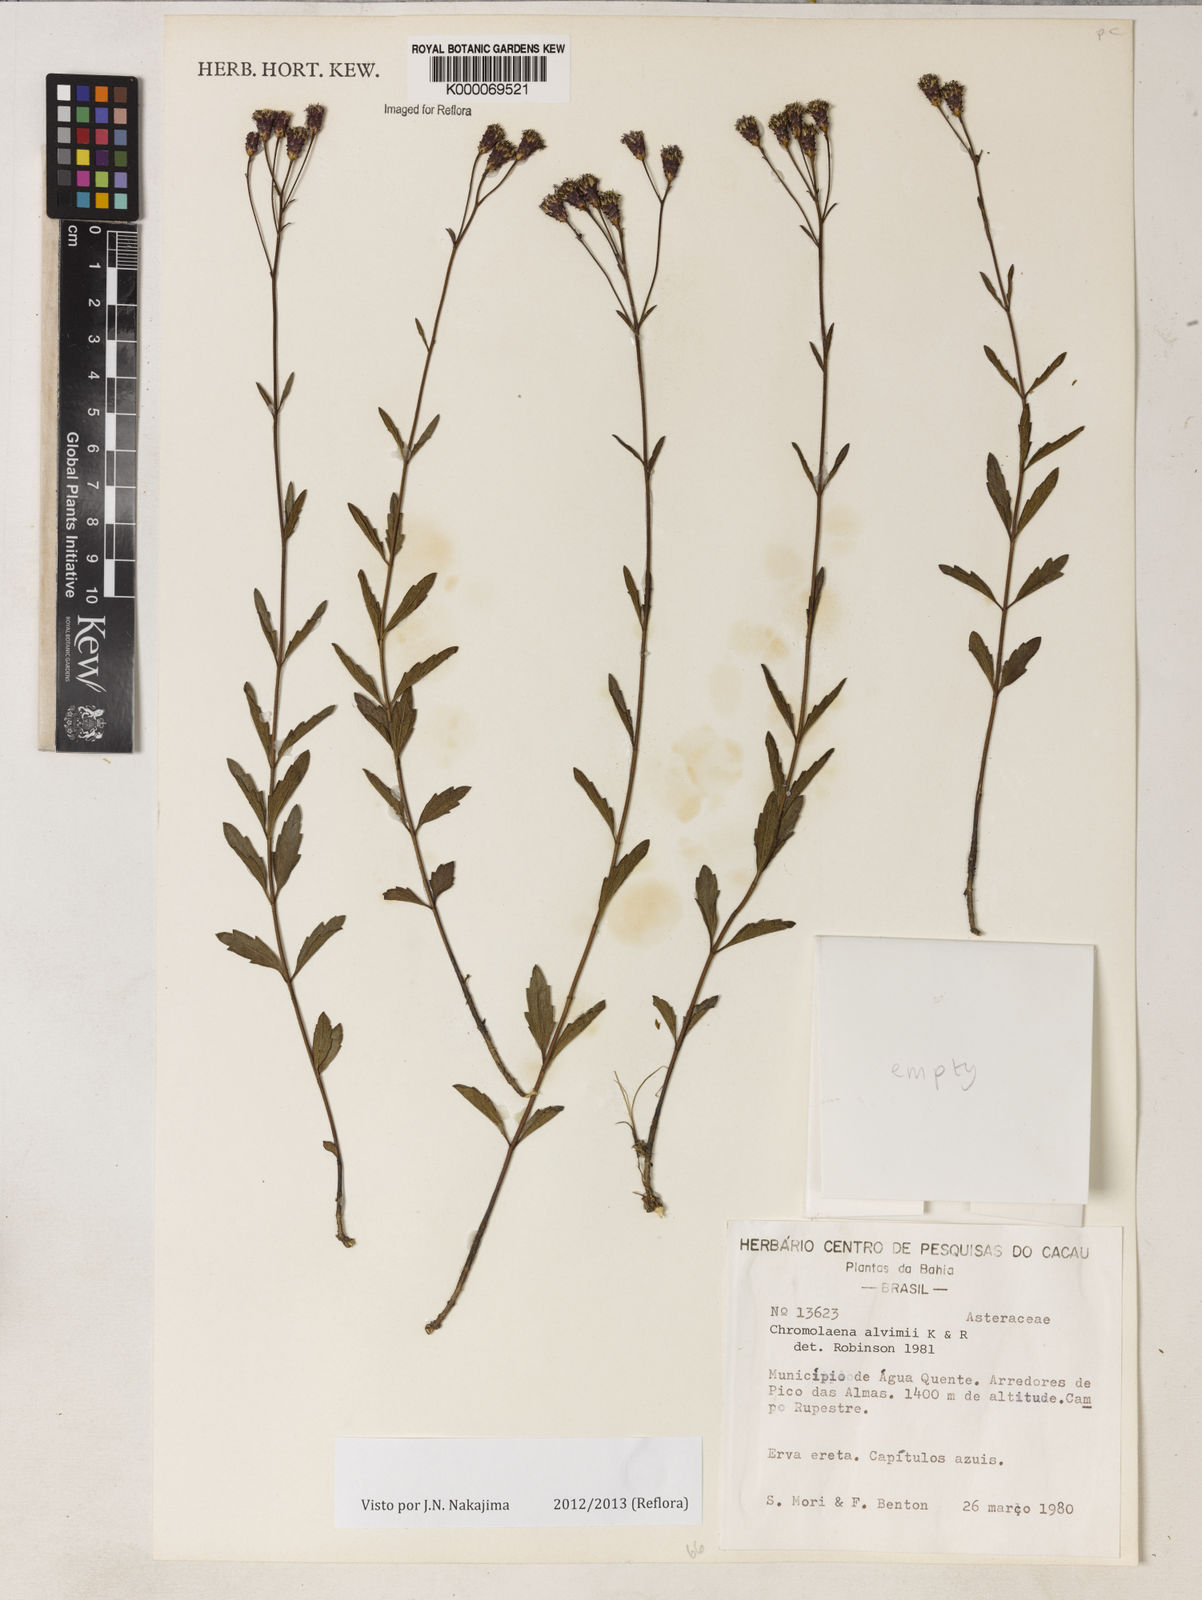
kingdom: Plantae
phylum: Tracheophyta
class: Magnoliopsida
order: Asterales
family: Asteraceae
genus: Chromolaena
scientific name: Chromolaena alvimii
